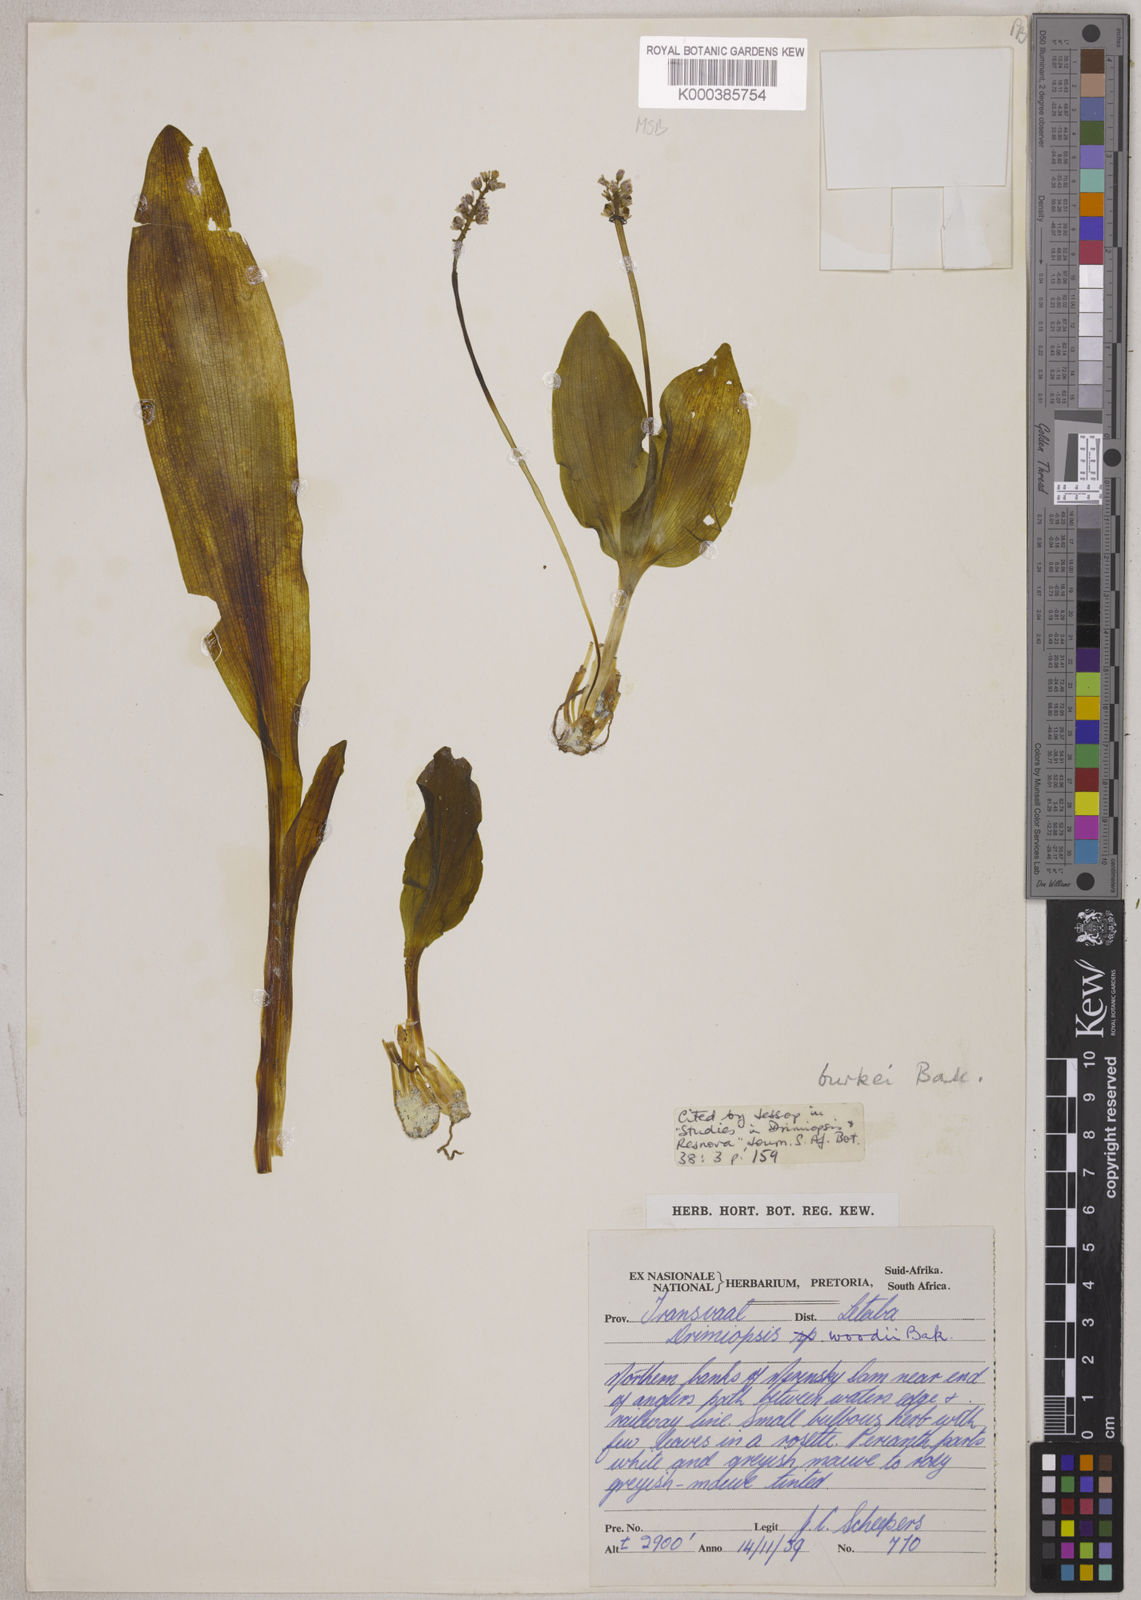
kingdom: Plantae
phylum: Tracheophyta
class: Liliopsida
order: Asparagales
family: Asparagaceae
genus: Drimiopsis
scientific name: Drimiopsis burkei
